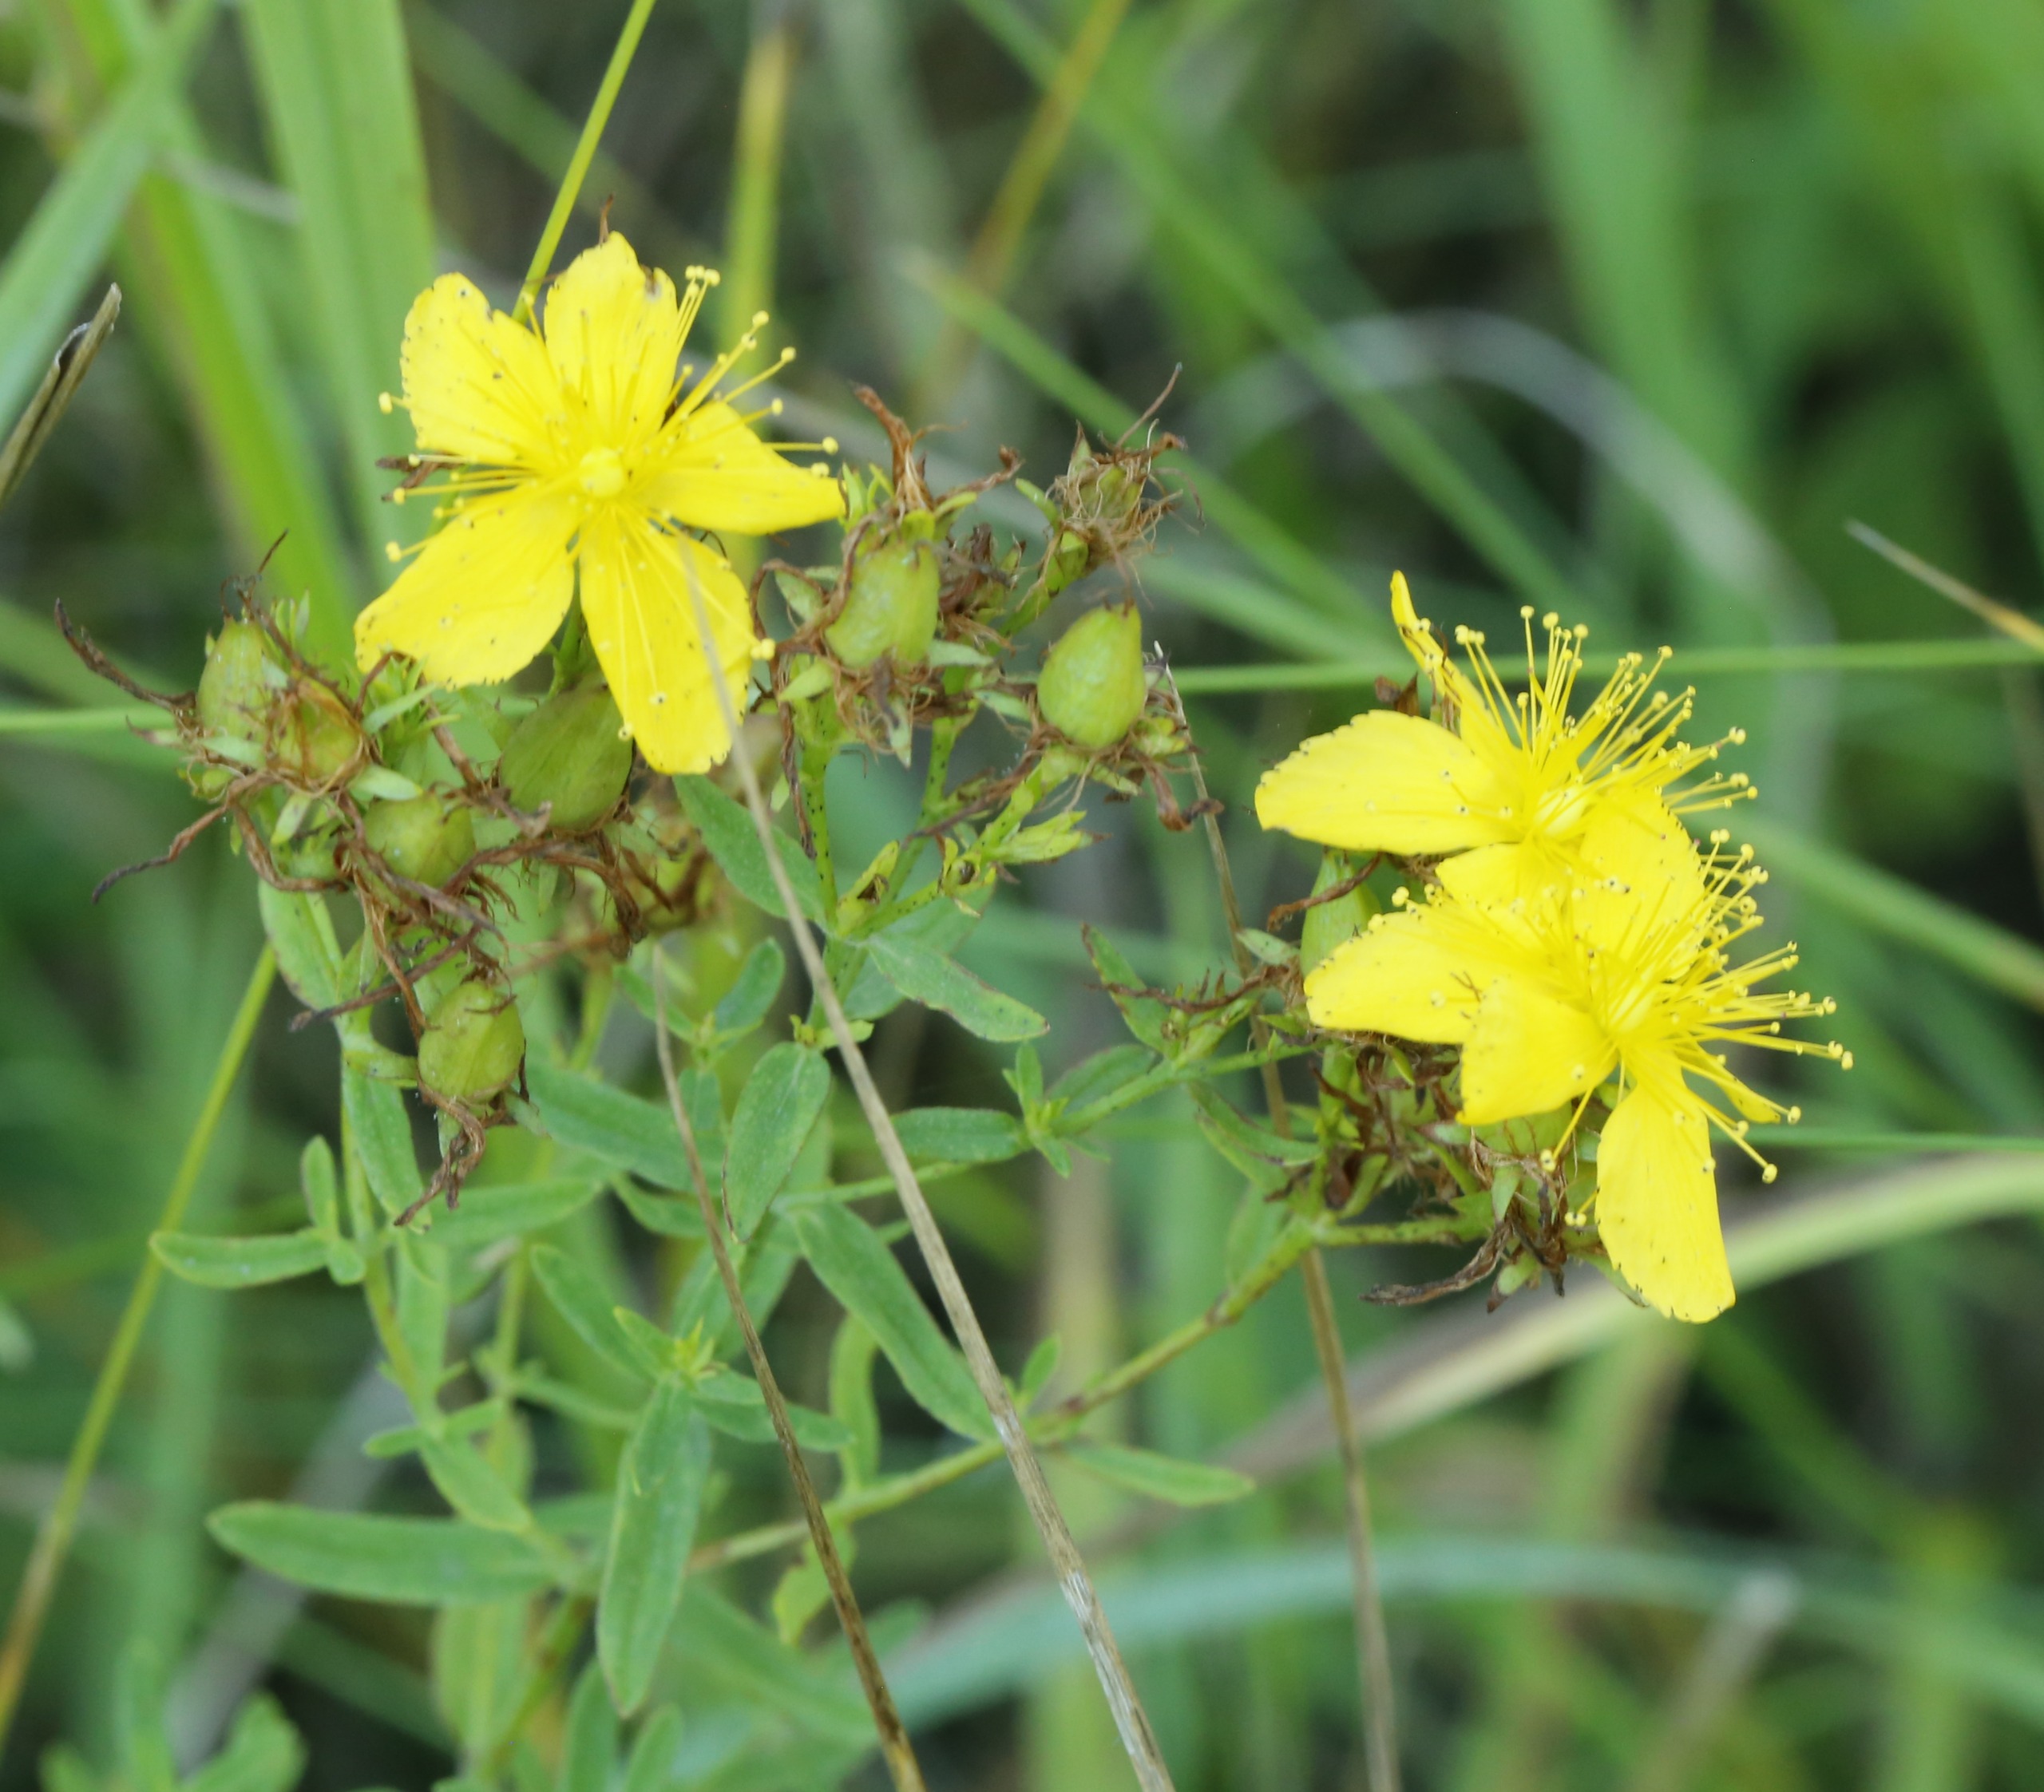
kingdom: Plantae
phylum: Tracheophyta
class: Magnoliopsida
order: Malpighiales
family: Hypericaceae
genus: Hypericum
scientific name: Hypericum perforatum
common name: Prikbladet perikon
